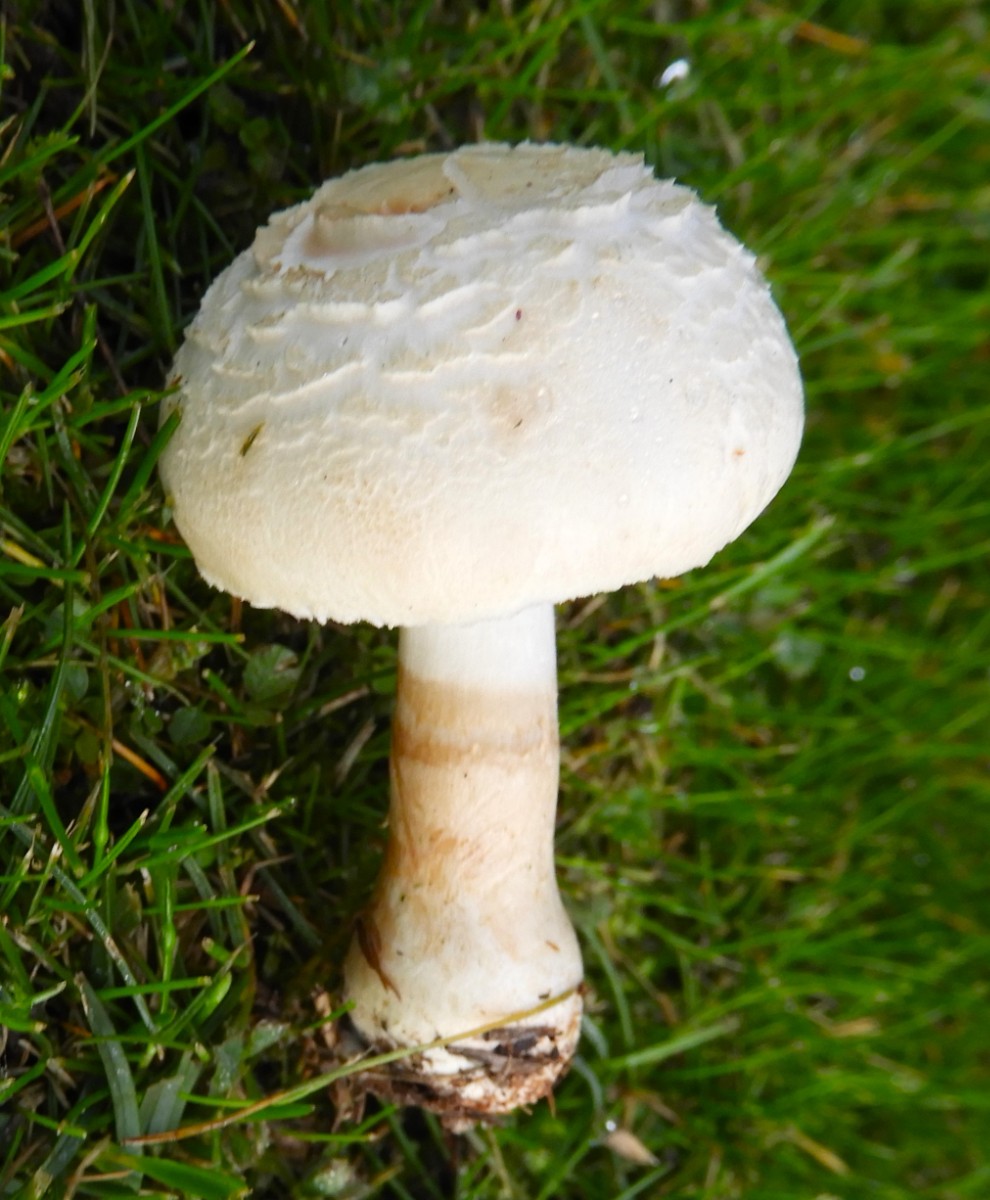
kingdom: Fungi
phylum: Basidiomycota
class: Agaricomycetes
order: Agaricales
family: Agaricaceae
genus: Leucoagaricus
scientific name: Leucoagaricus leucothites
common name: rosabladet silkehat
